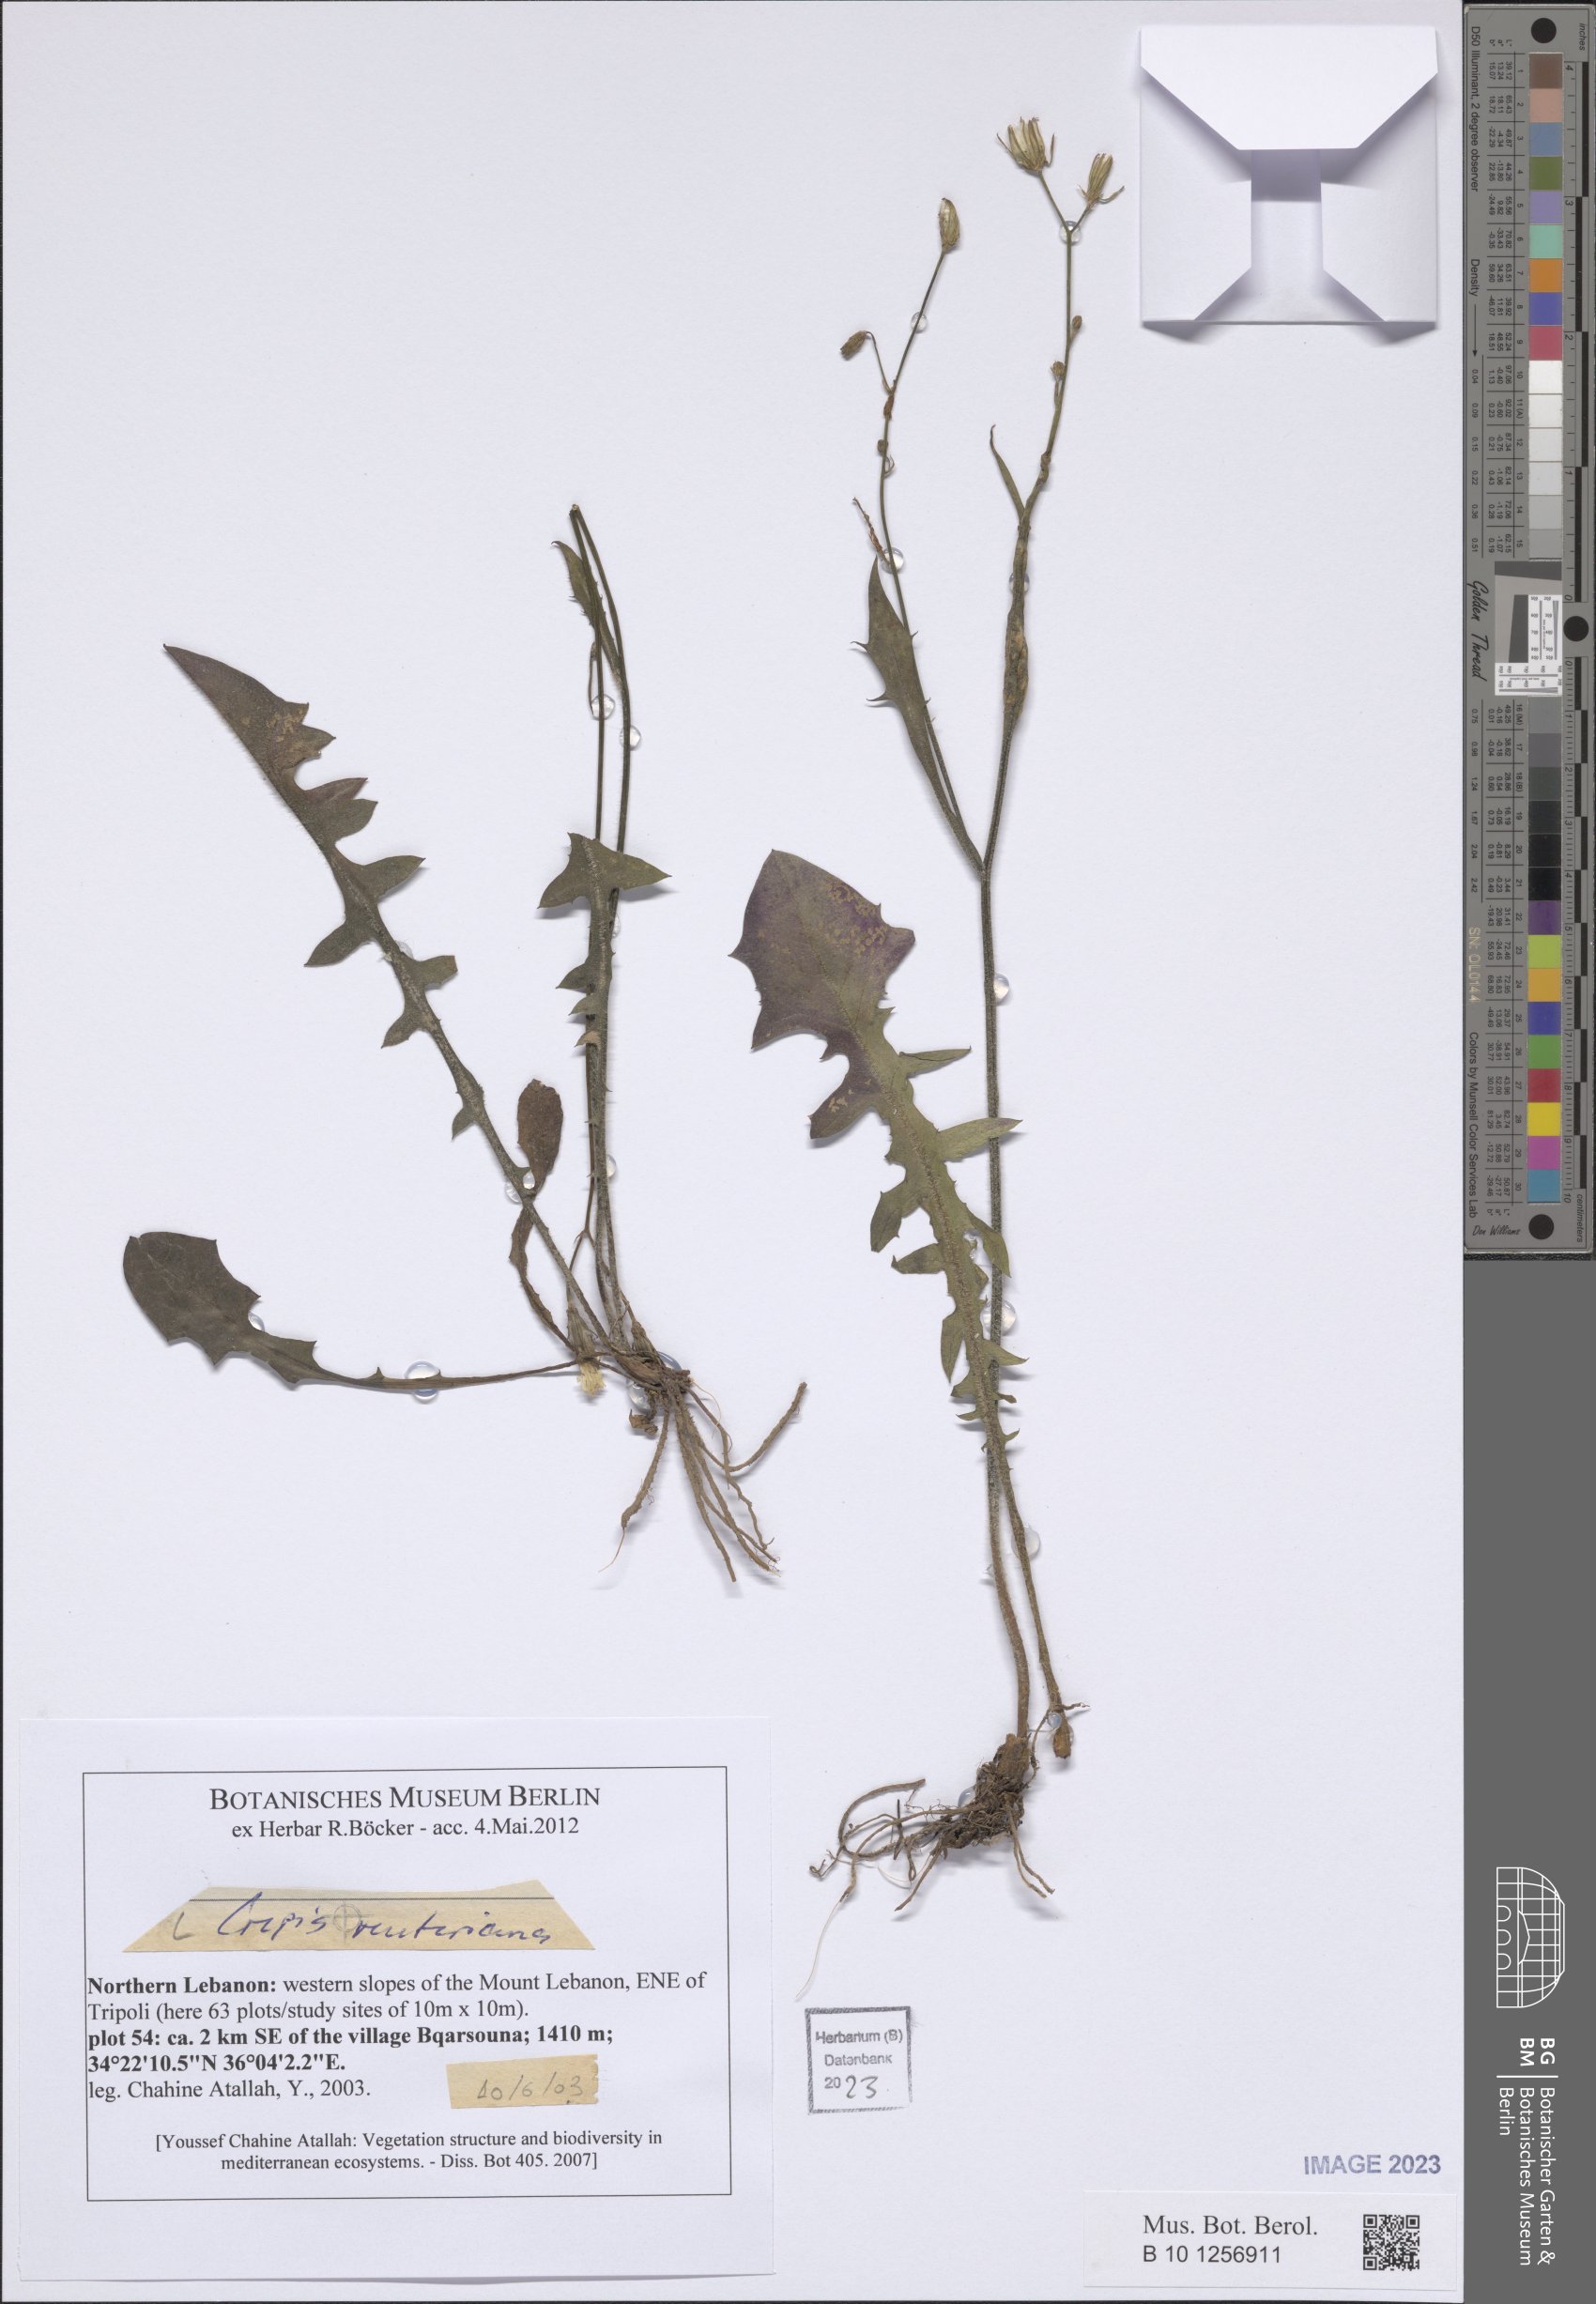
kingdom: Plantae
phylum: Tracheophyta
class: Magnoliopsida
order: Asterales
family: Asteraceae
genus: Crepis
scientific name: Crepis reuteriana
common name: Hawk's-beard
